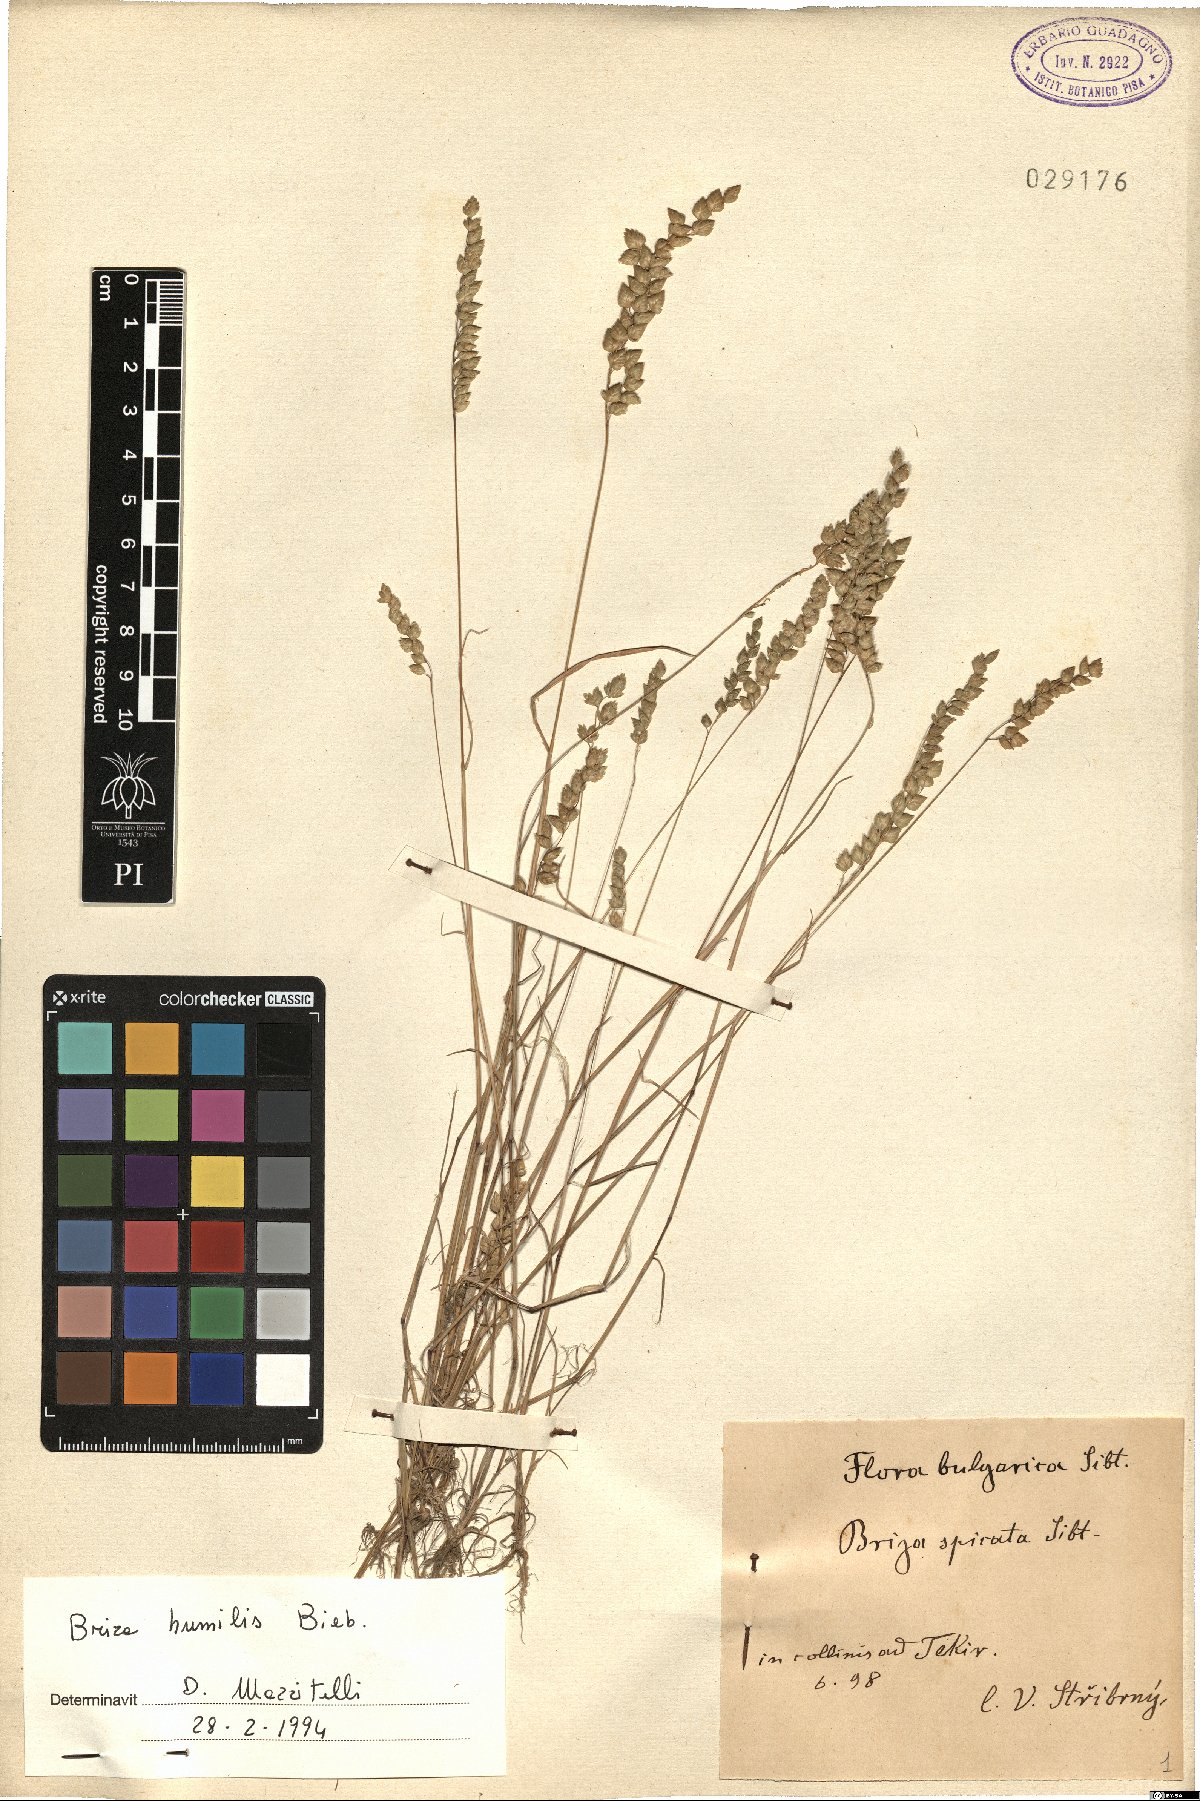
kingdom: Plantae
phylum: Tracheophyta
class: Liliopsida
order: Poales
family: Poaceae
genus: Briza
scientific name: Briza humilis
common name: Spiked quaking grass
